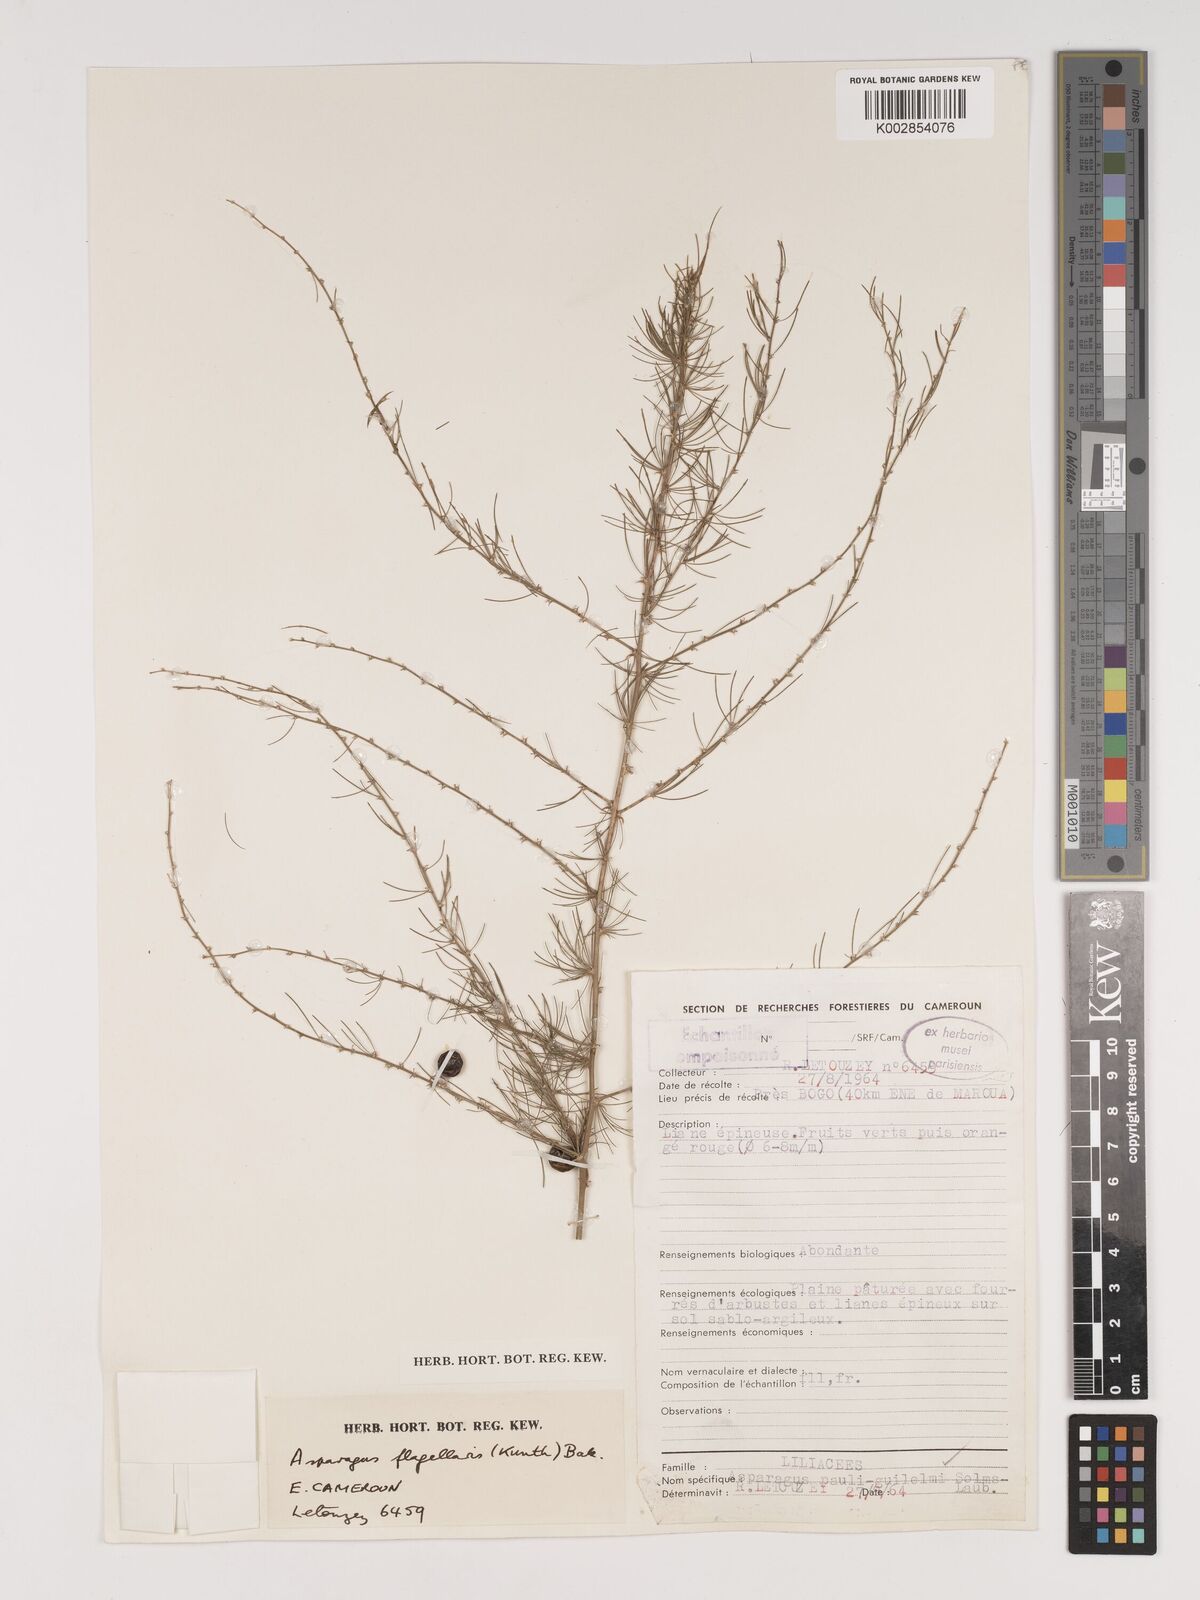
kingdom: Plantae
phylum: Tracheophyta
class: Liliopsida
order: Asparagales
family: Asparagaceae
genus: Asparagus
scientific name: Asparagus flagellaris
